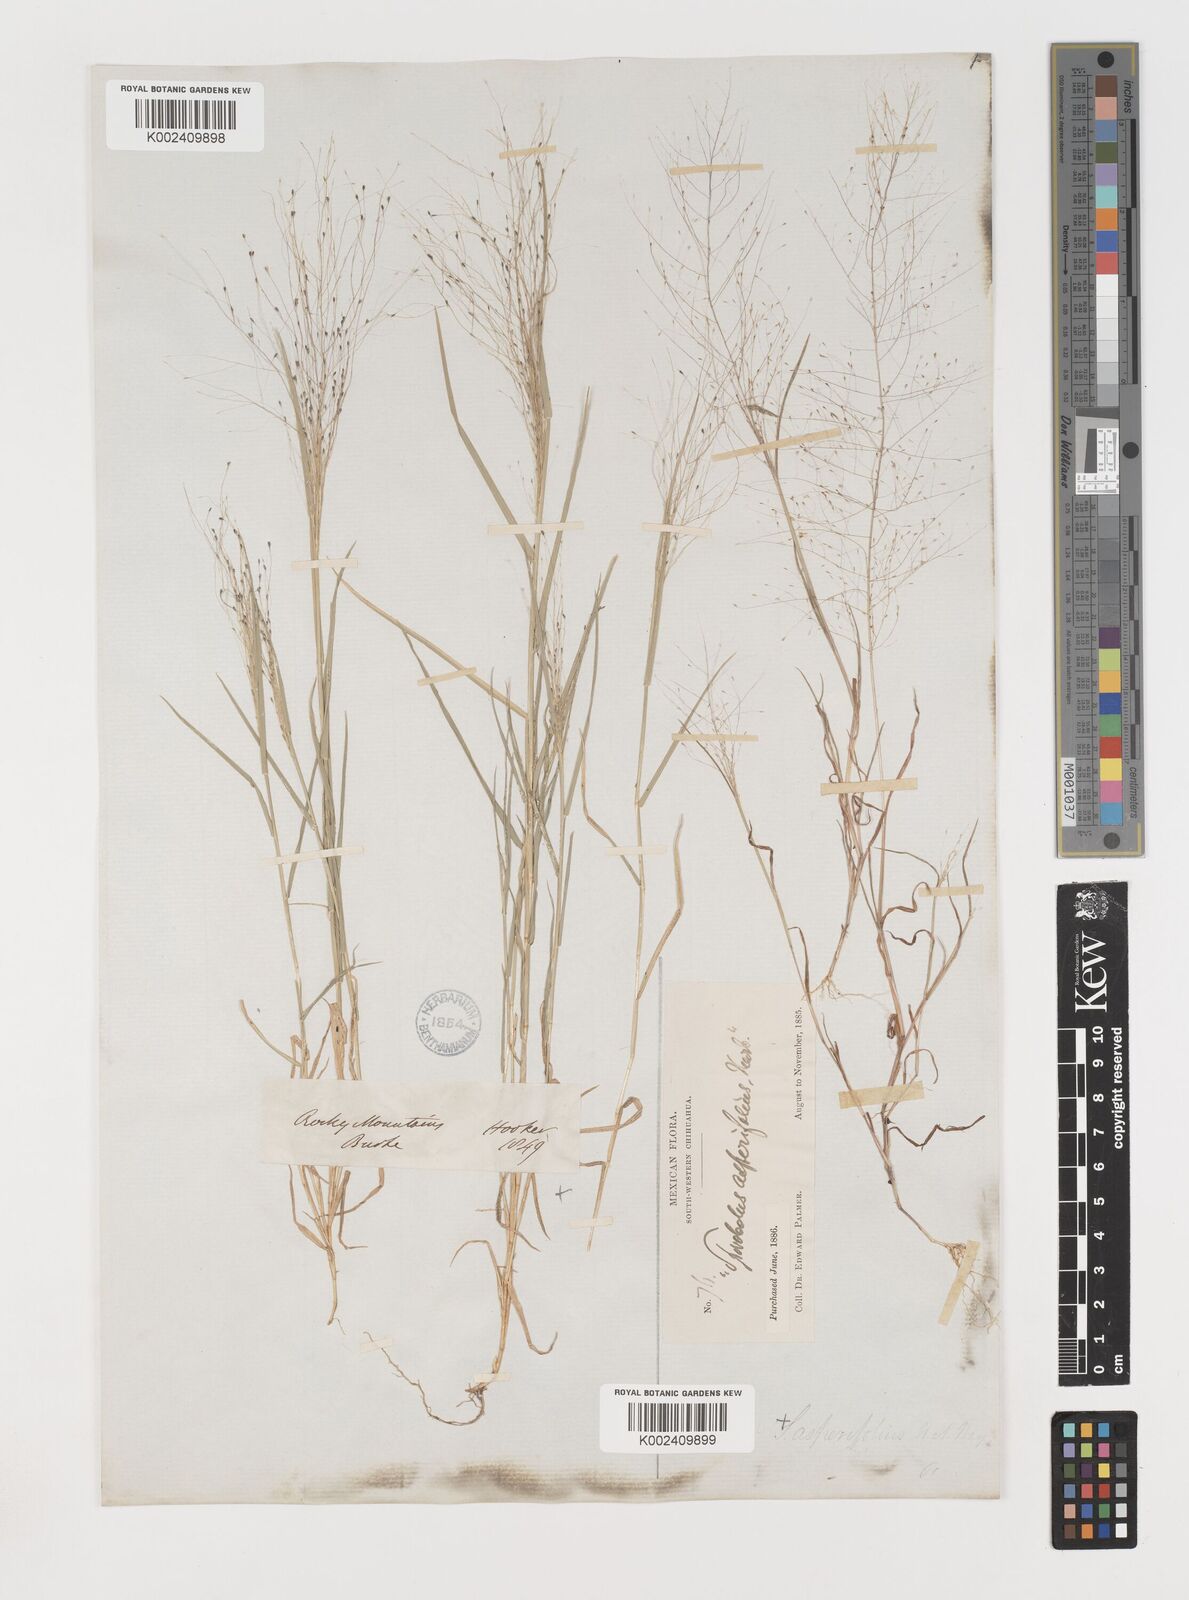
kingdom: Plantae
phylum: Tracheophyta
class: Liliopsida
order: Poales
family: Poaceae
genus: Muhlenbergia
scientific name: Muhlenbergia asperifolia
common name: Alkali muhly
